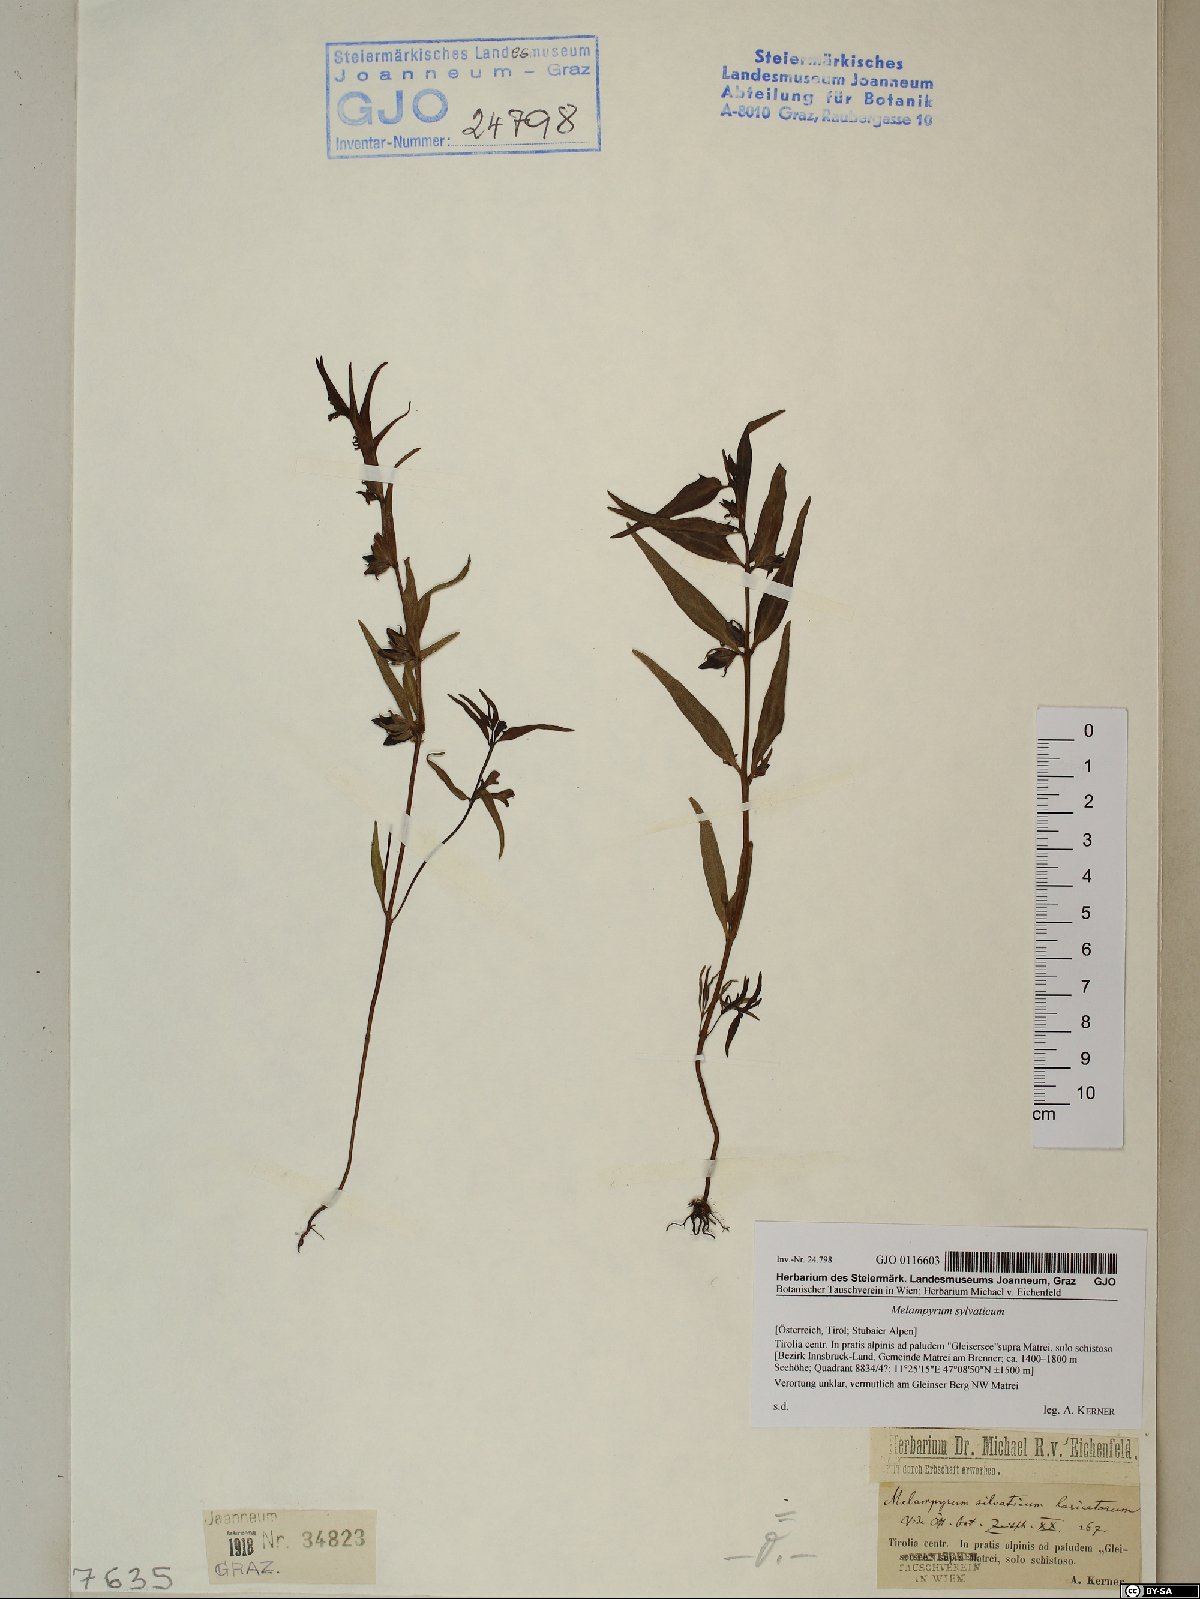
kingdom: Plantae
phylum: Tracheophyta
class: Magnoliopsida
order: Lamiales
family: Orobanchaceae
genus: Melampyrum
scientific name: Melampyrum sylvaticum
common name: Small cow-wheat
